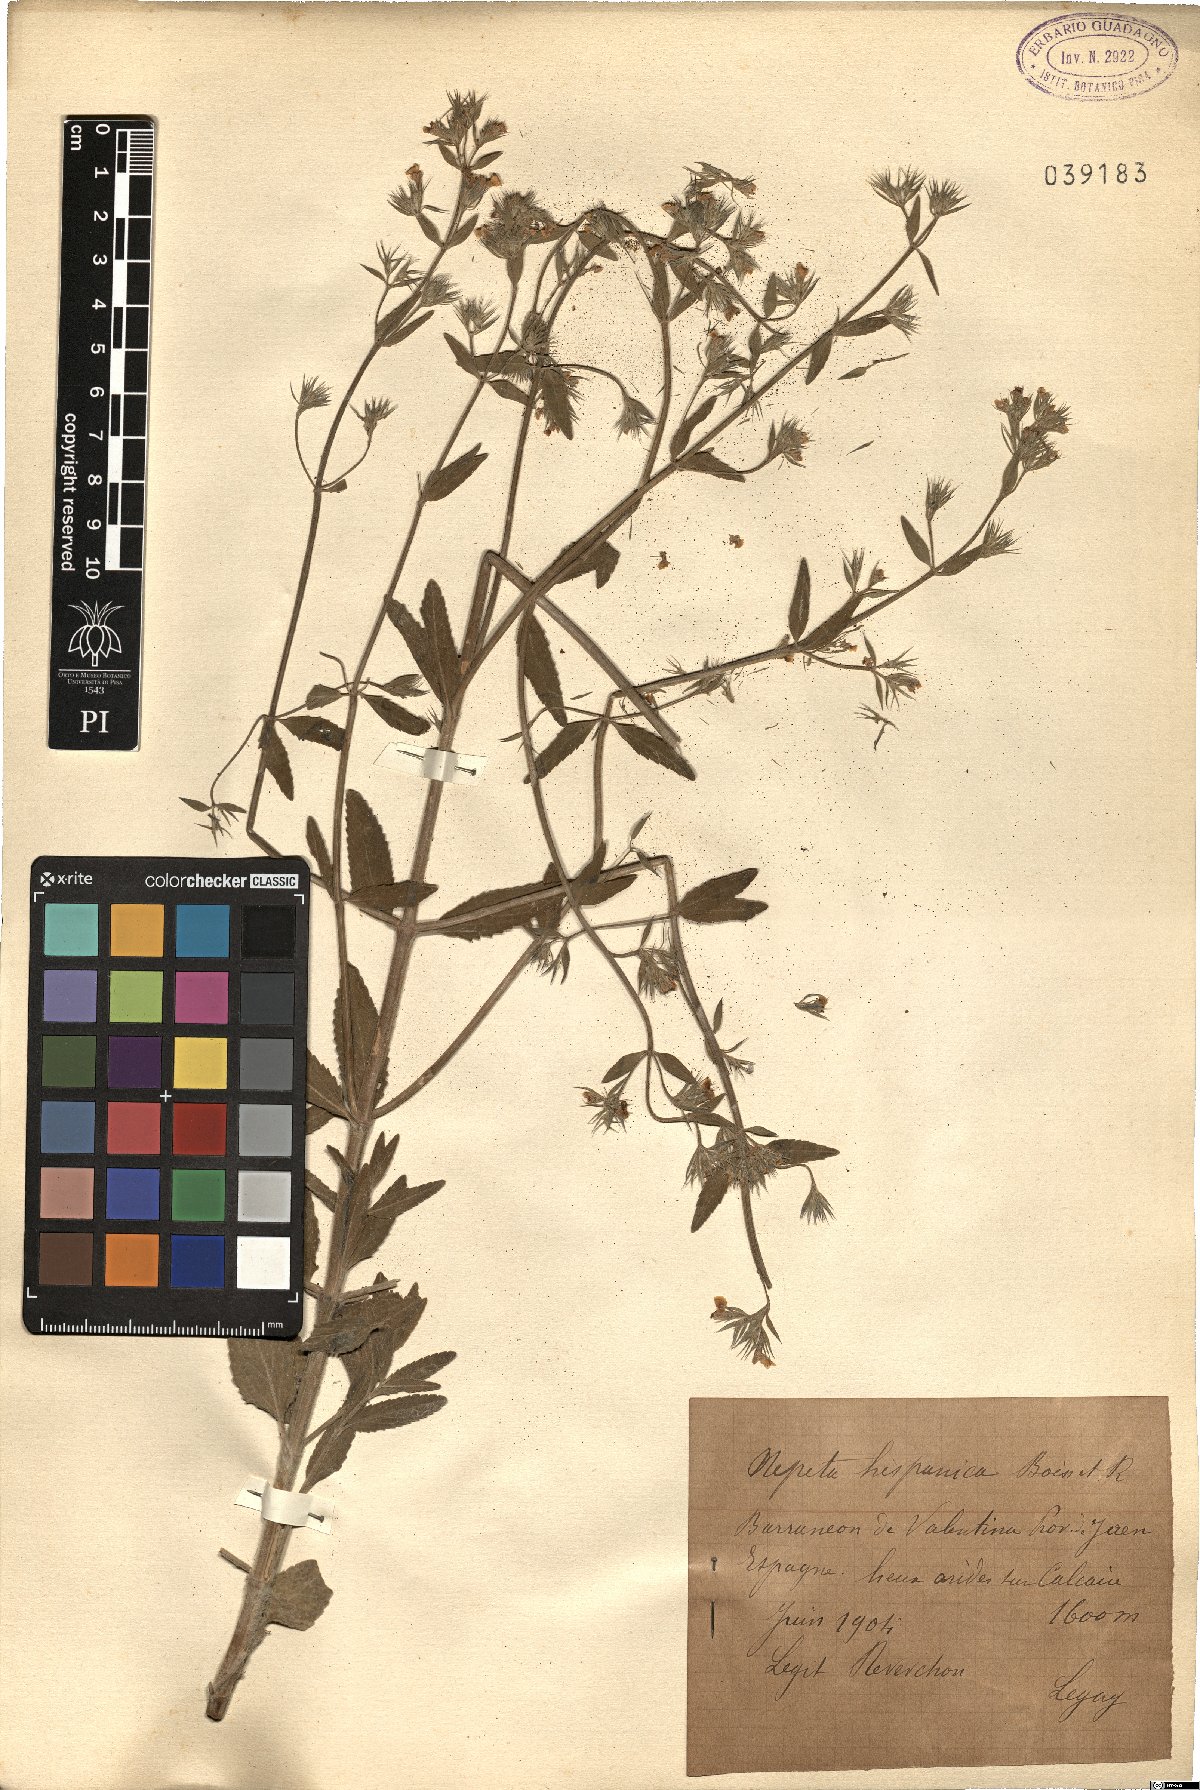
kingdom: Plantae
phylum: Tracheophyta
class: Magnoliopsida
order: Lamiales
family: Lamiaceae
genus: Nepeta
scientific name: Nepeta hispanica
